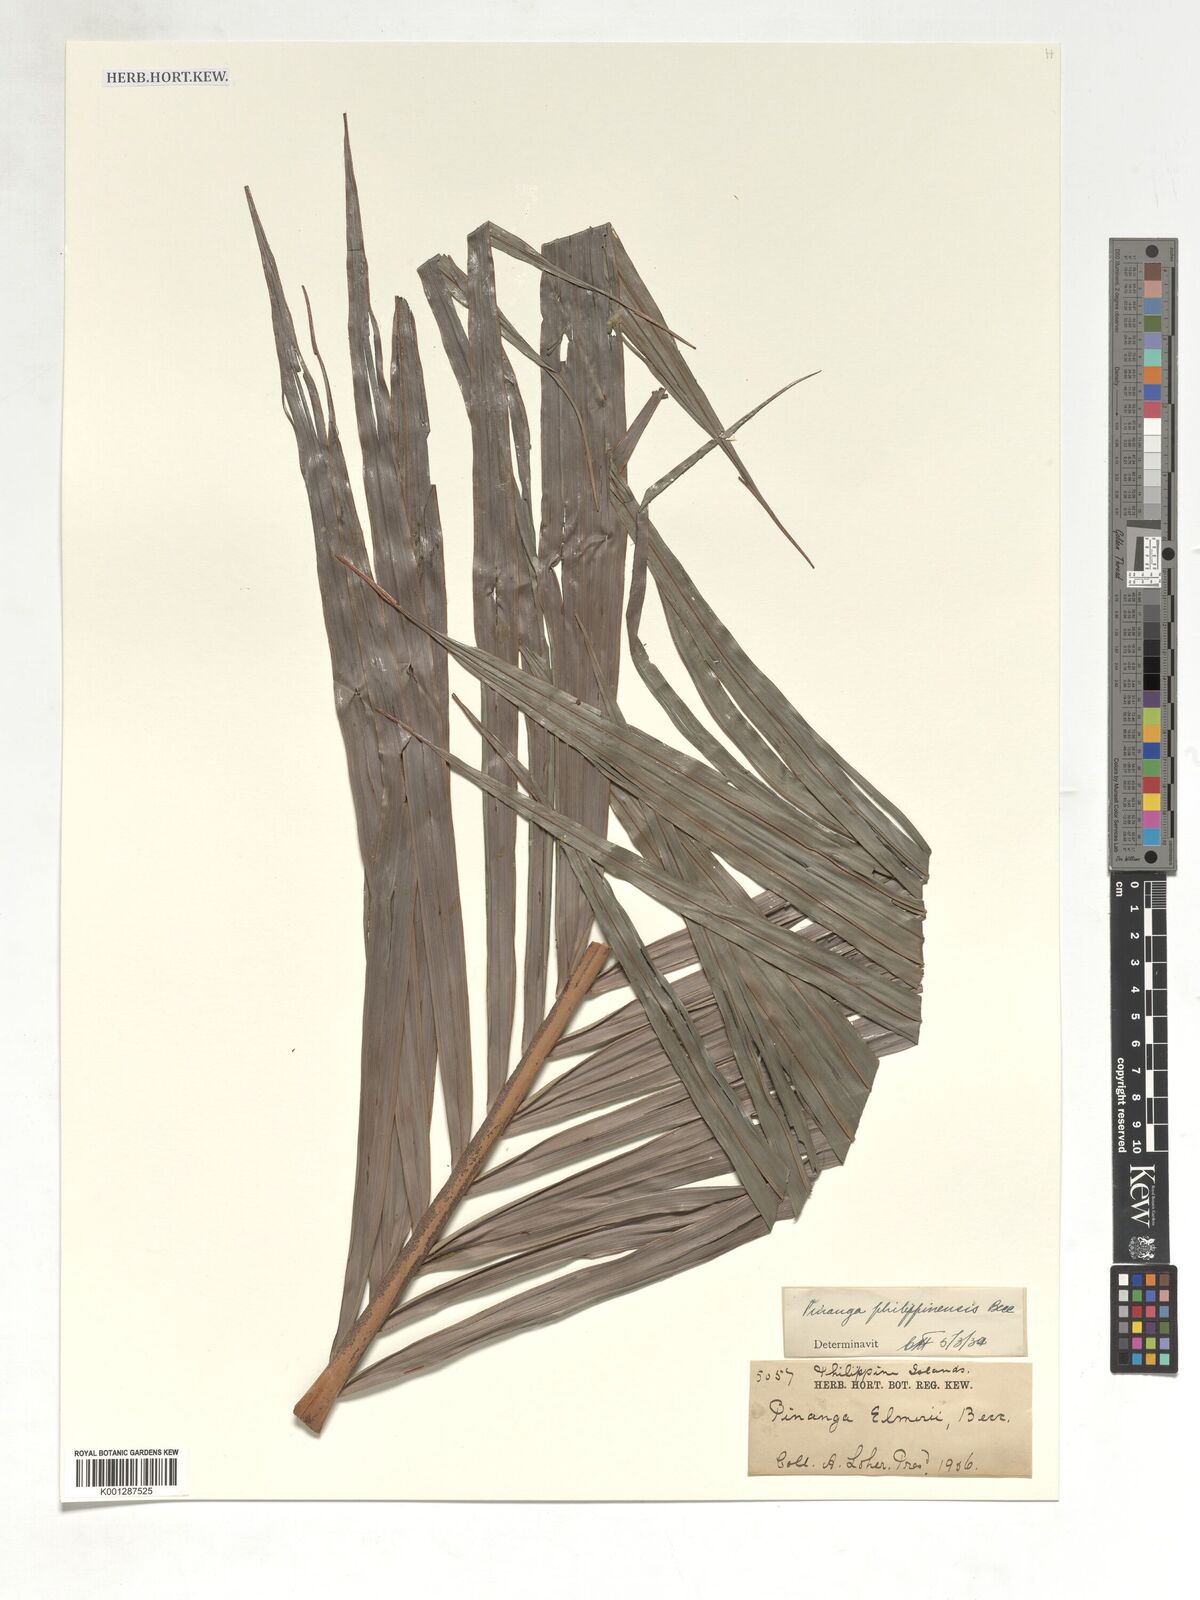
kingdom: Plantae
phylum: Tracheophyta
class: Liliopsida
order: Arecales
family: Arecaceae
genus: Pinanga
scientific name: Pinanga philippinensis
